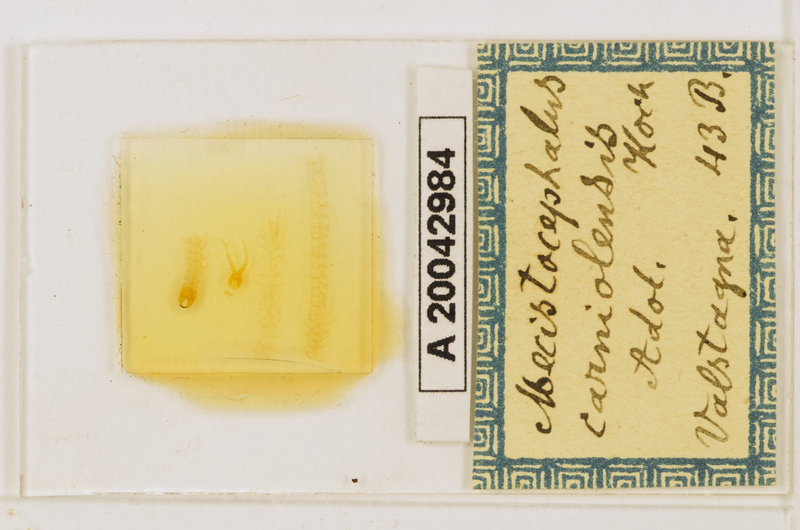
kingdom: Animalia
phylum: Arthropoda
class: Chilopoda
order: Geophilomorpha
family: Mecistocephalidae
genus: Dicellophilus
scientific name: Dicellophilus carniolensis
